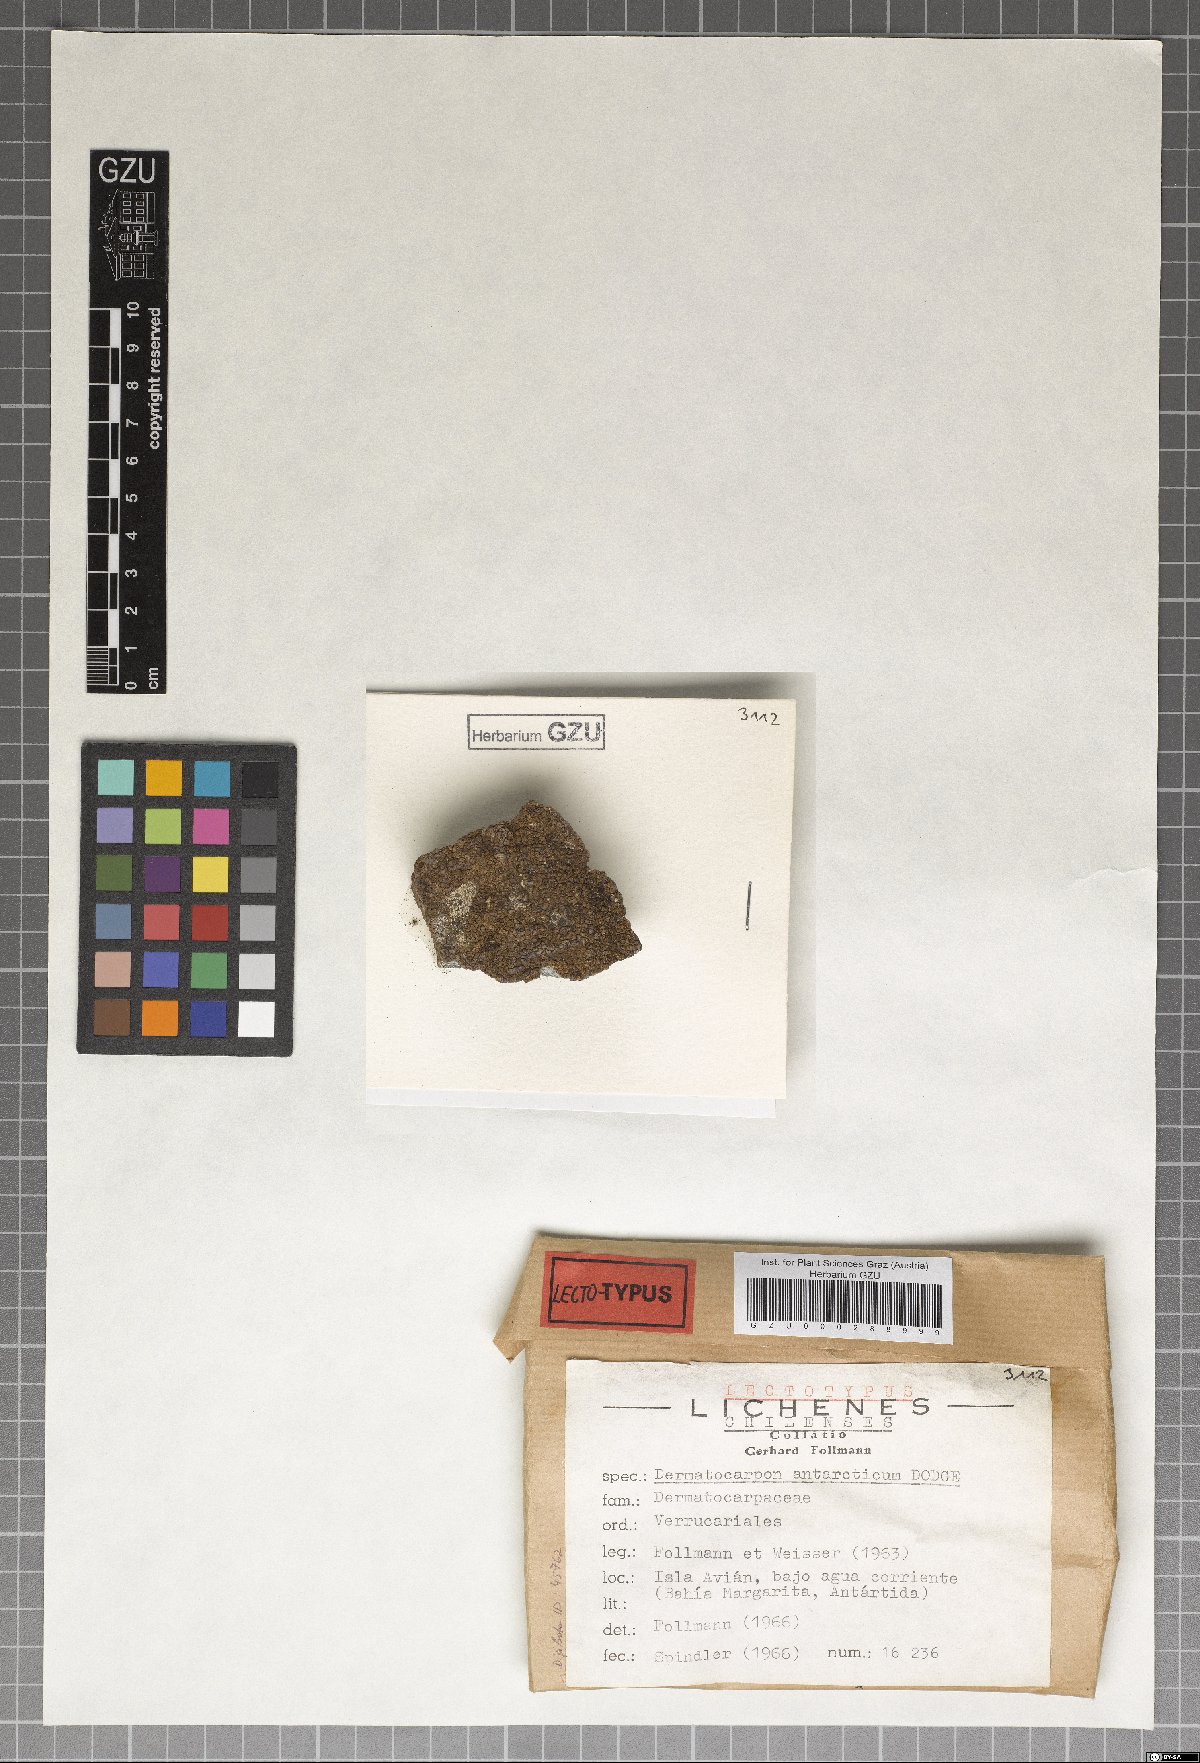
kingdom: Fungi
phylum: Ascomycota
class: Eurotiomycetes
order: Verrucariales
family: Verrucariaceae
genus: Dermatocarpon
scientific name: Dermatocarpon antarcticum
